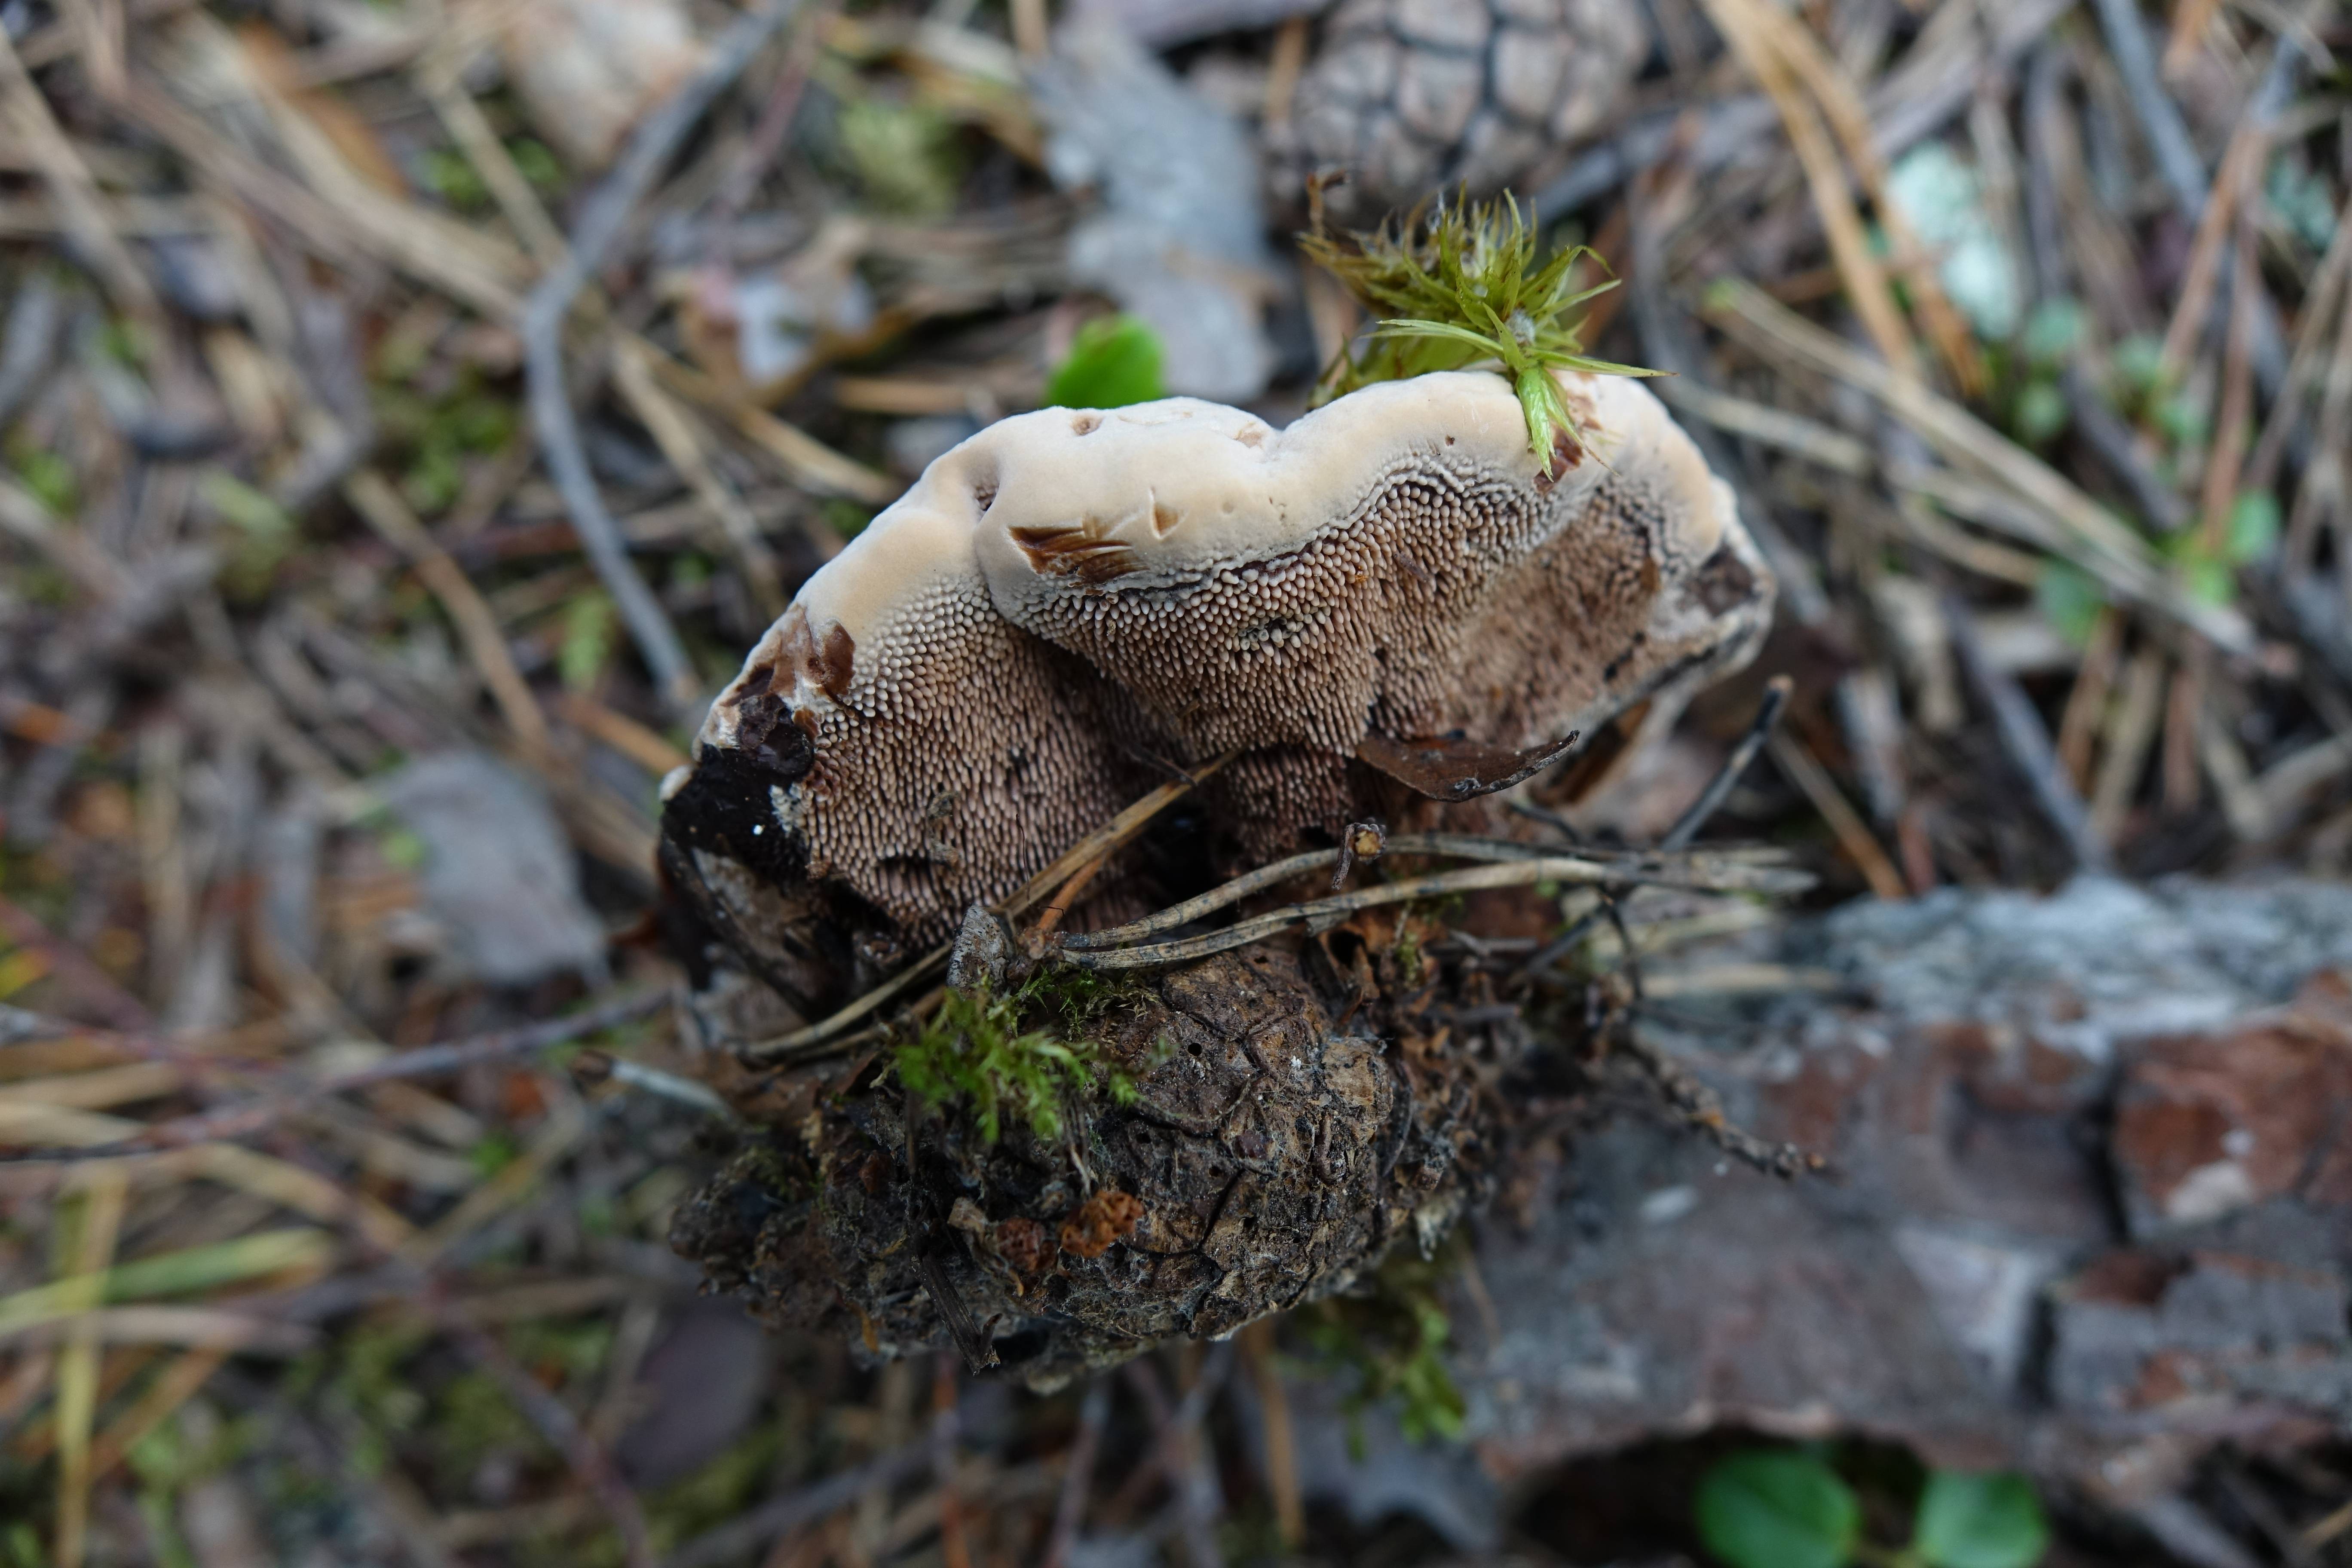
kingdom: Fungi
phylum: Basidiomycota
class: Agaricomycetes
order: Thelephorales
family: Bankeraceae
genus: Hydnellum
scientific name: Hydnellum ferrugineum
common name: Mealy tooth
